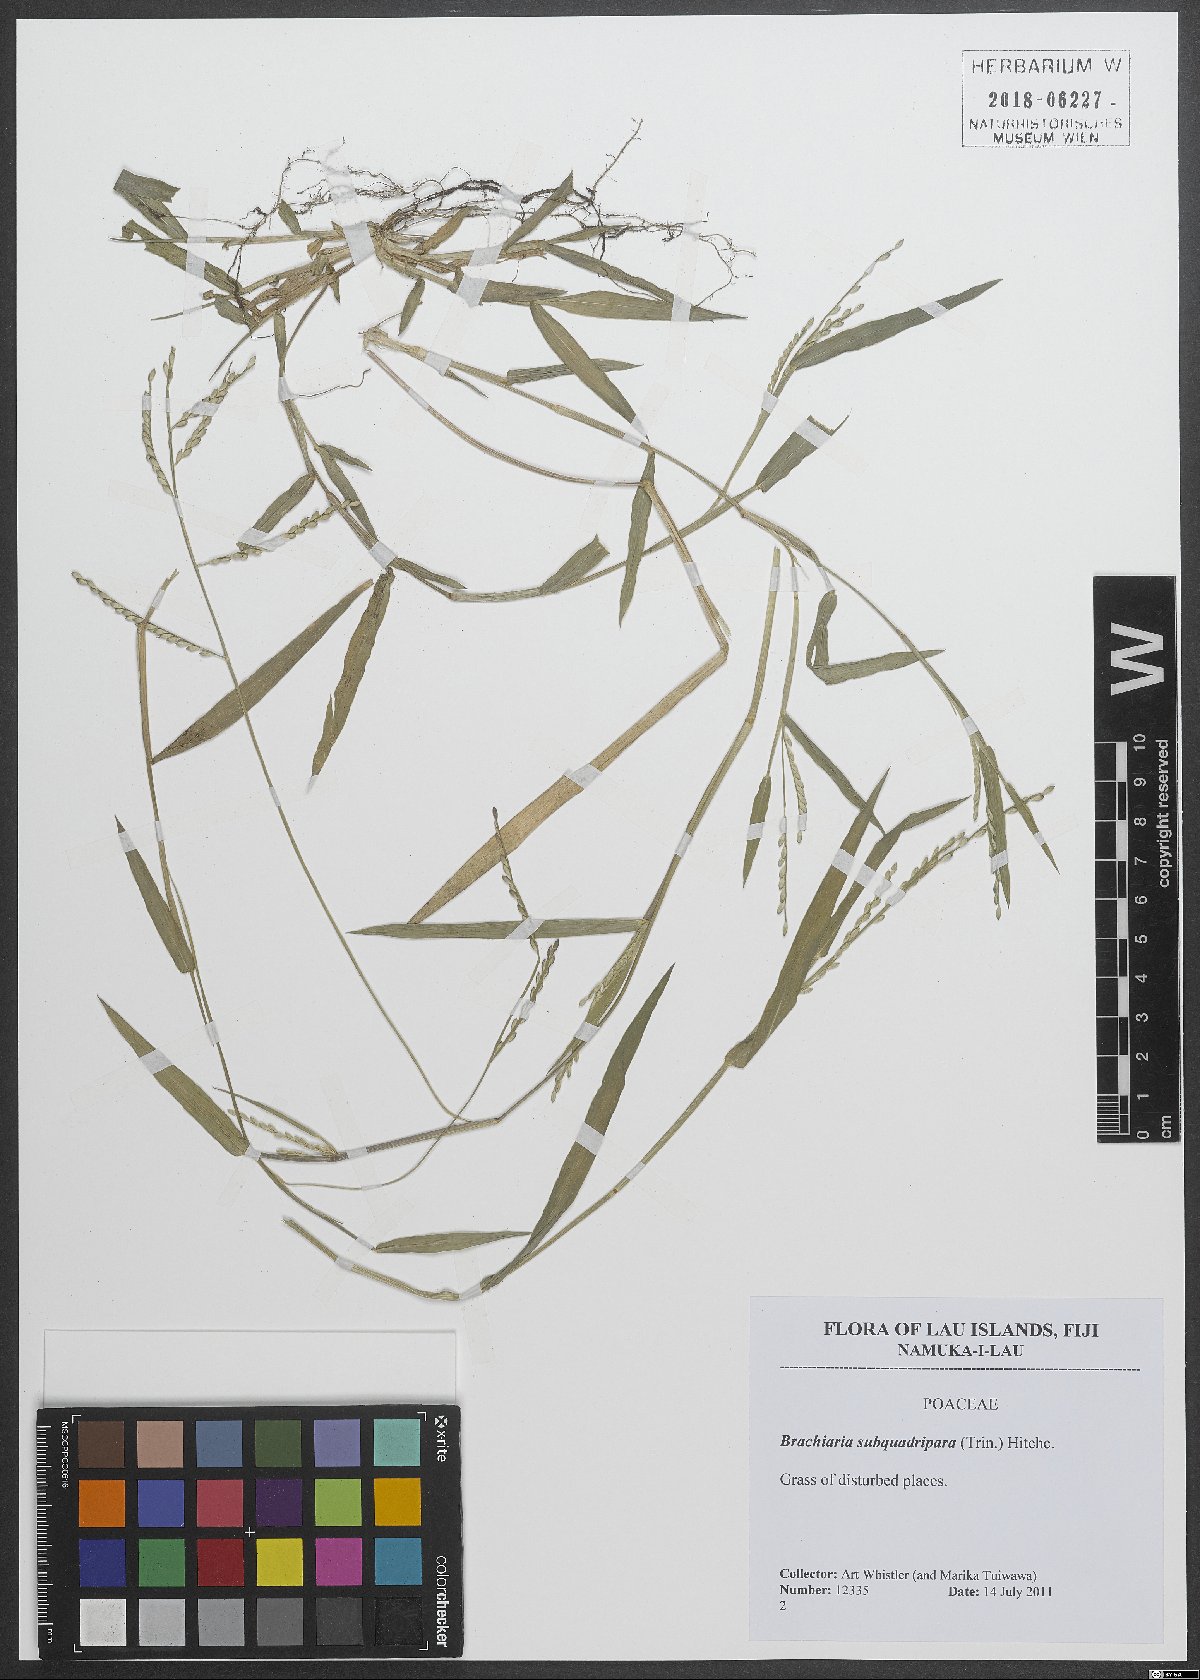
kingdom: Plantae
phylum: Tracheophyta
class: Liliopsida
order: Poales
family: Poaceae
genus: Urochloa
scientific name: Urochloa subquadripara
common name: Armgrass millet
